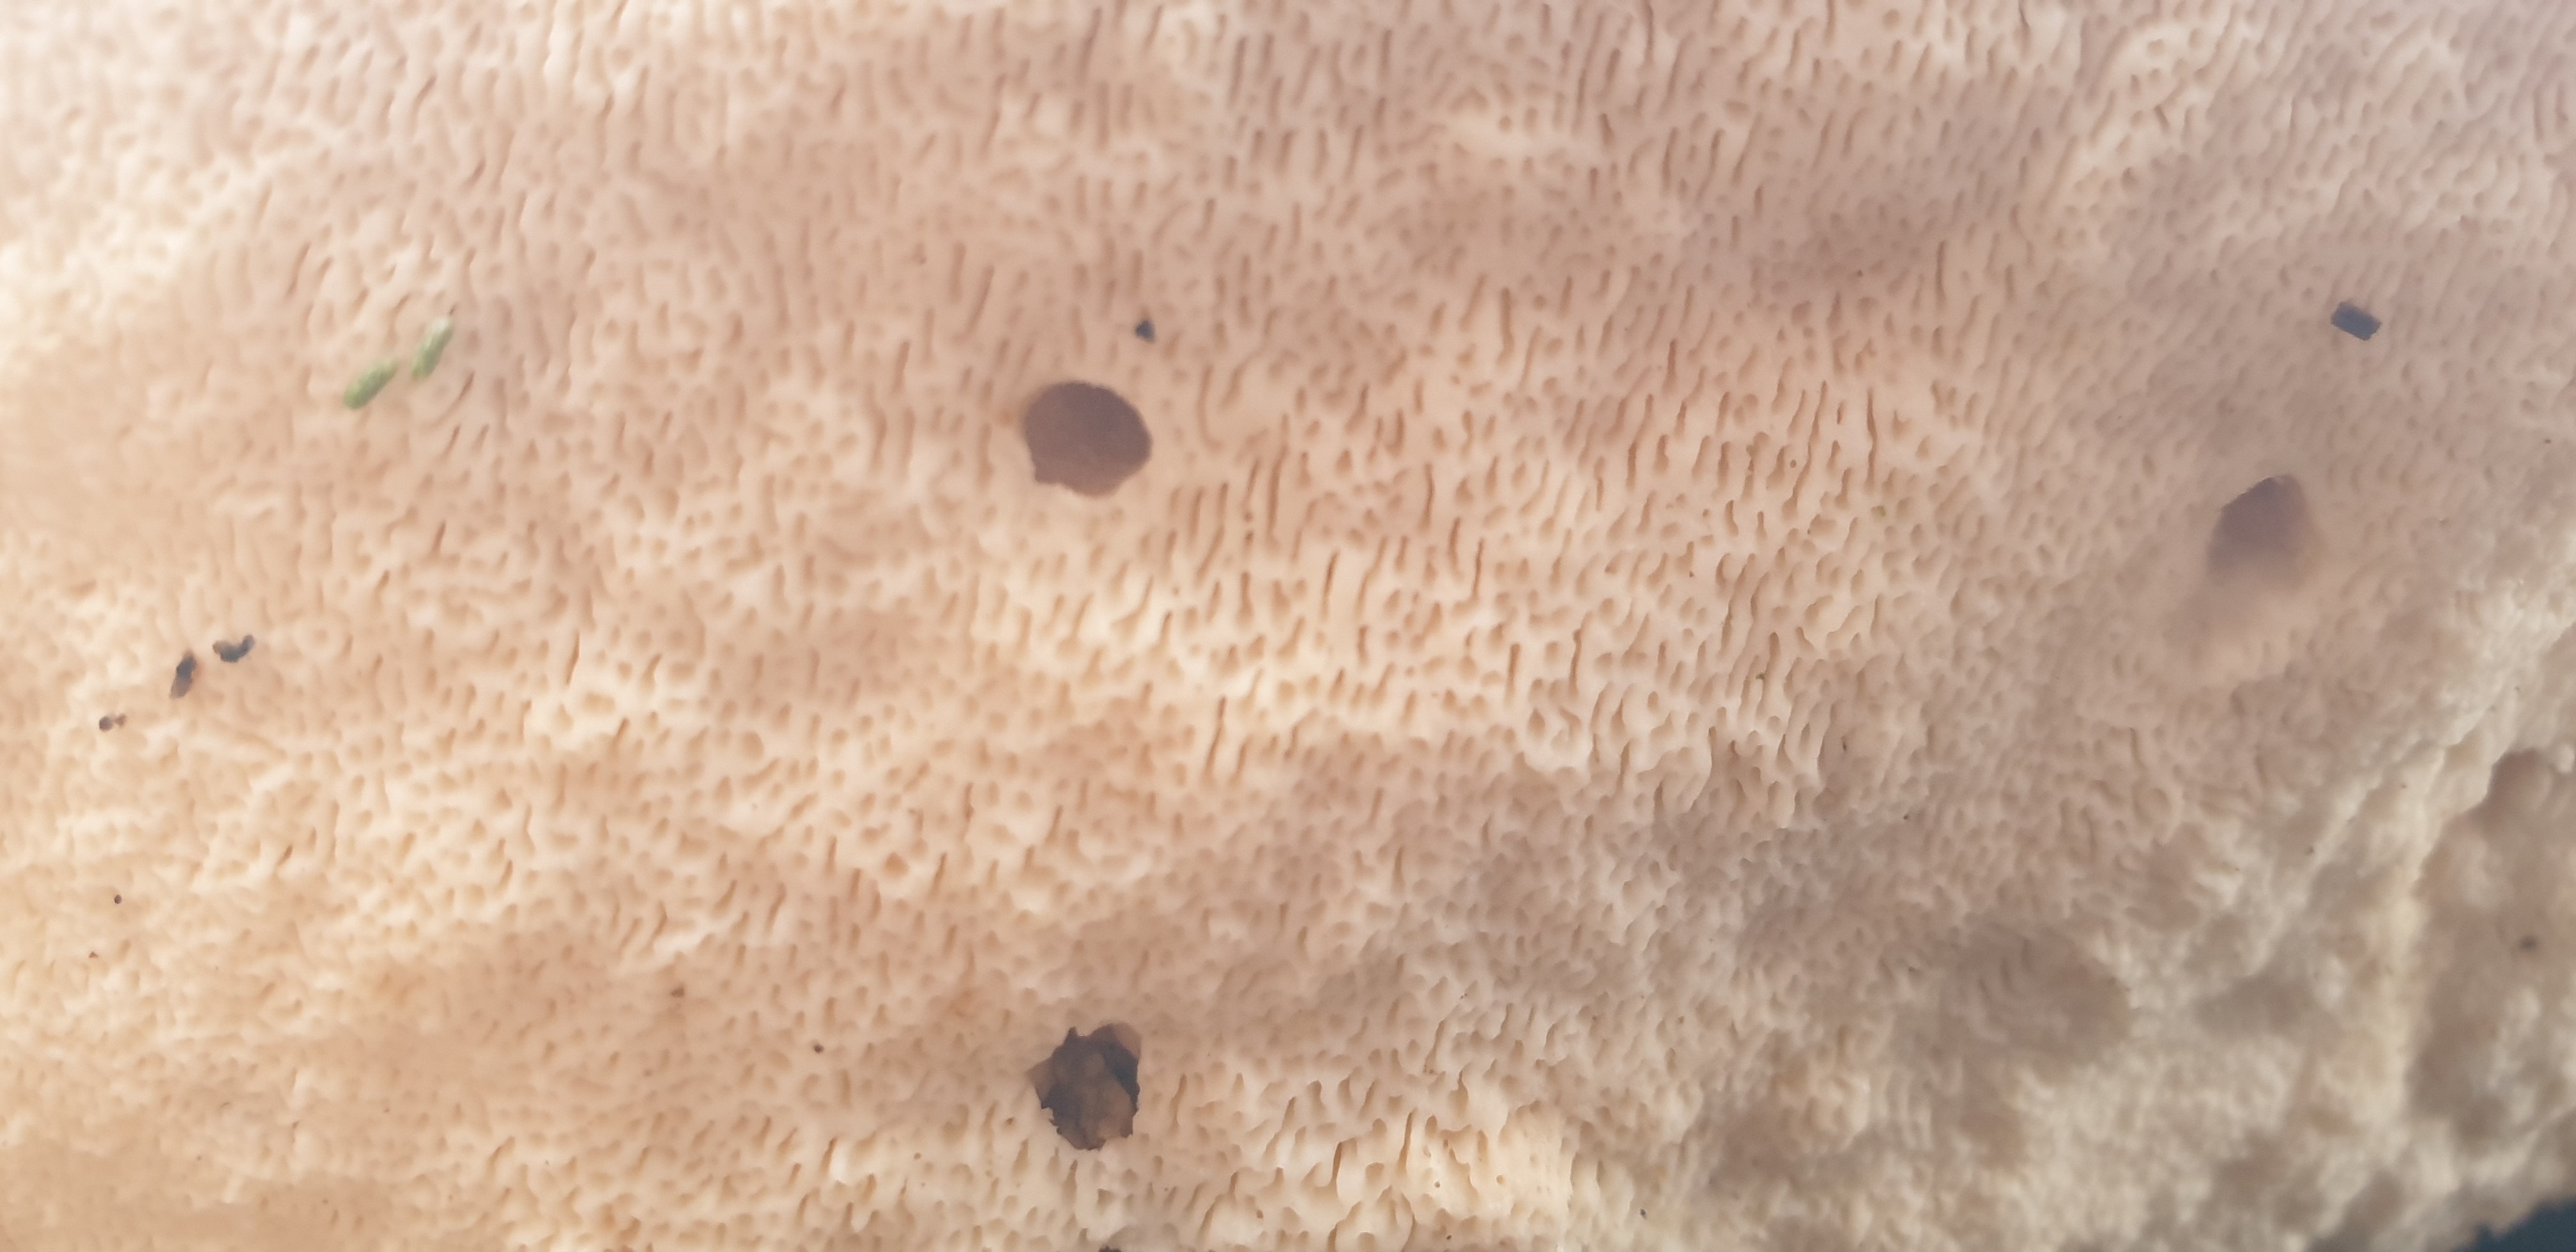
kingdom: Fungi
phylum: Basidiomycota
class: Agaricomycetes
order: Polyporales
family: Polyporaceae
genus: Trametes
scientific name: Trametes gibbosa
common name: puklet læderporesvamp
